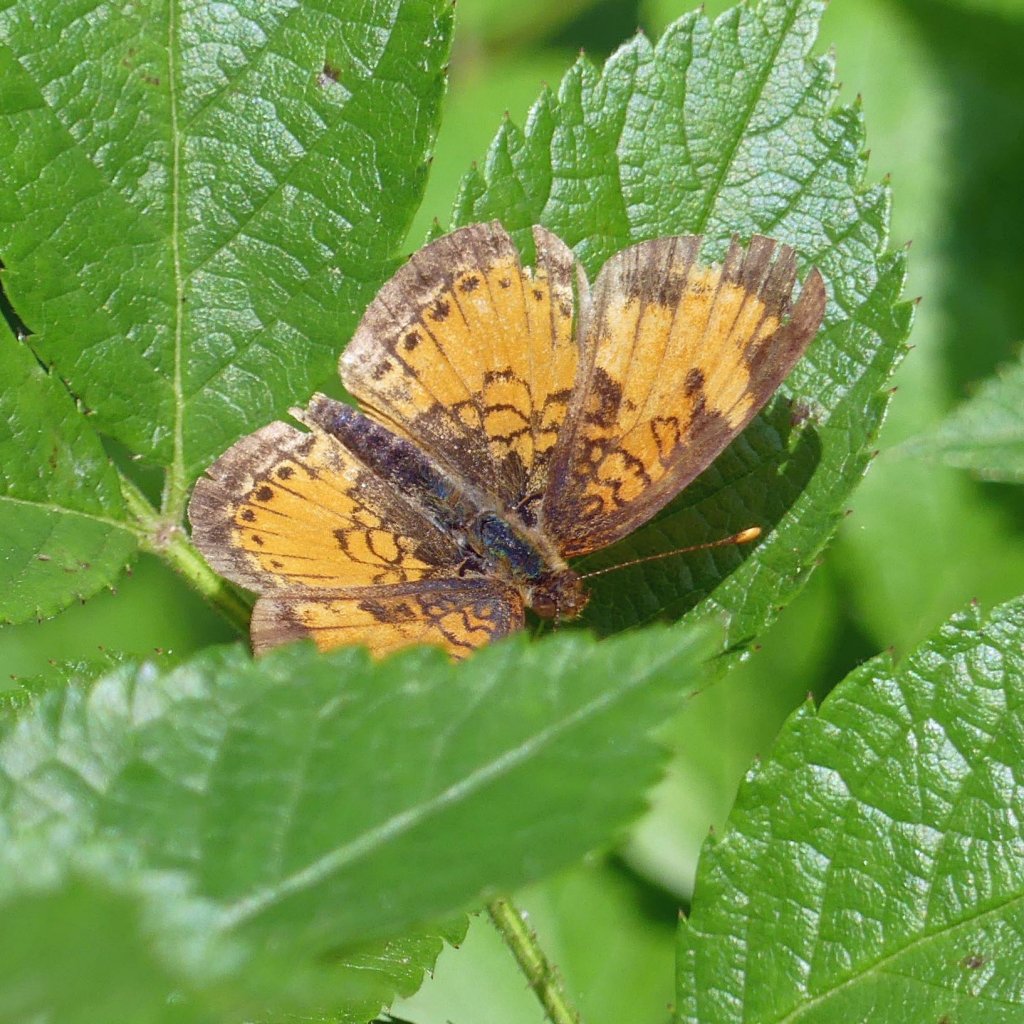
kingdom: Animalia
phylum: Arthropoda
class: Insecta
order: Lepidoptera
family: Nymphalidae
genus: Phyciodes
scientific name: Phyciodes tharos
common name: Northern Crescent
